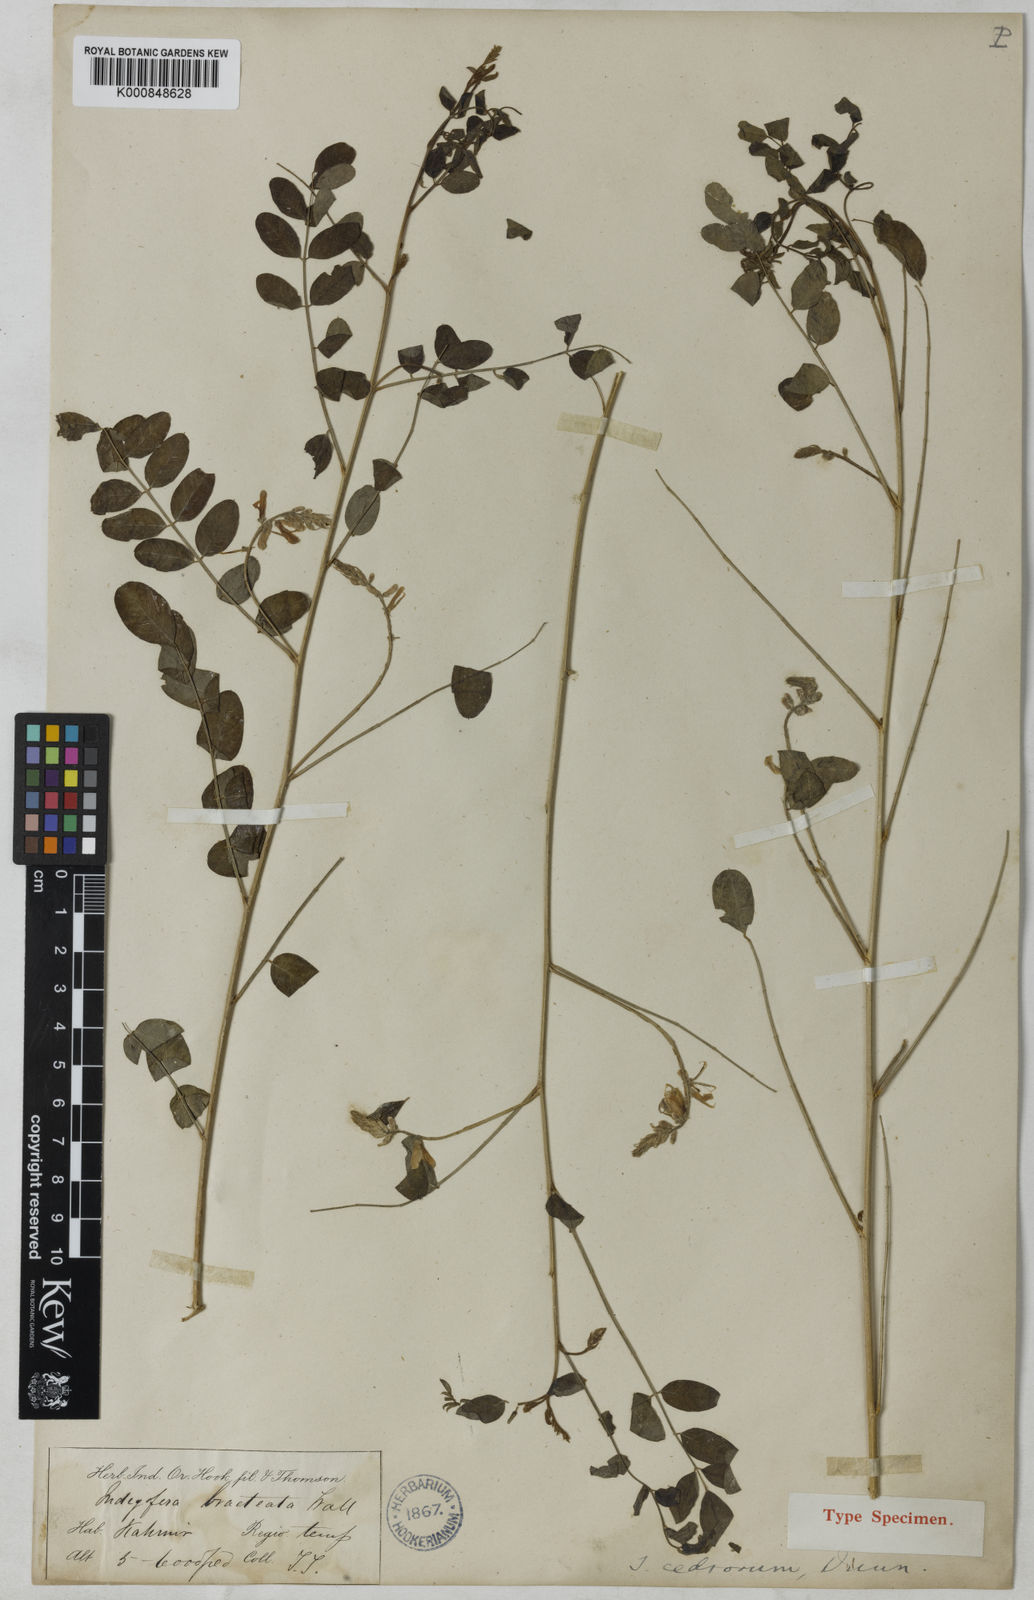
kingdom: Plantae
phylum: Tracheophyta
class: Magnoliopsida
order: Fabales
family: Fabaceae
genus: Indigofera
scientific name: Indigofera cedrorum
